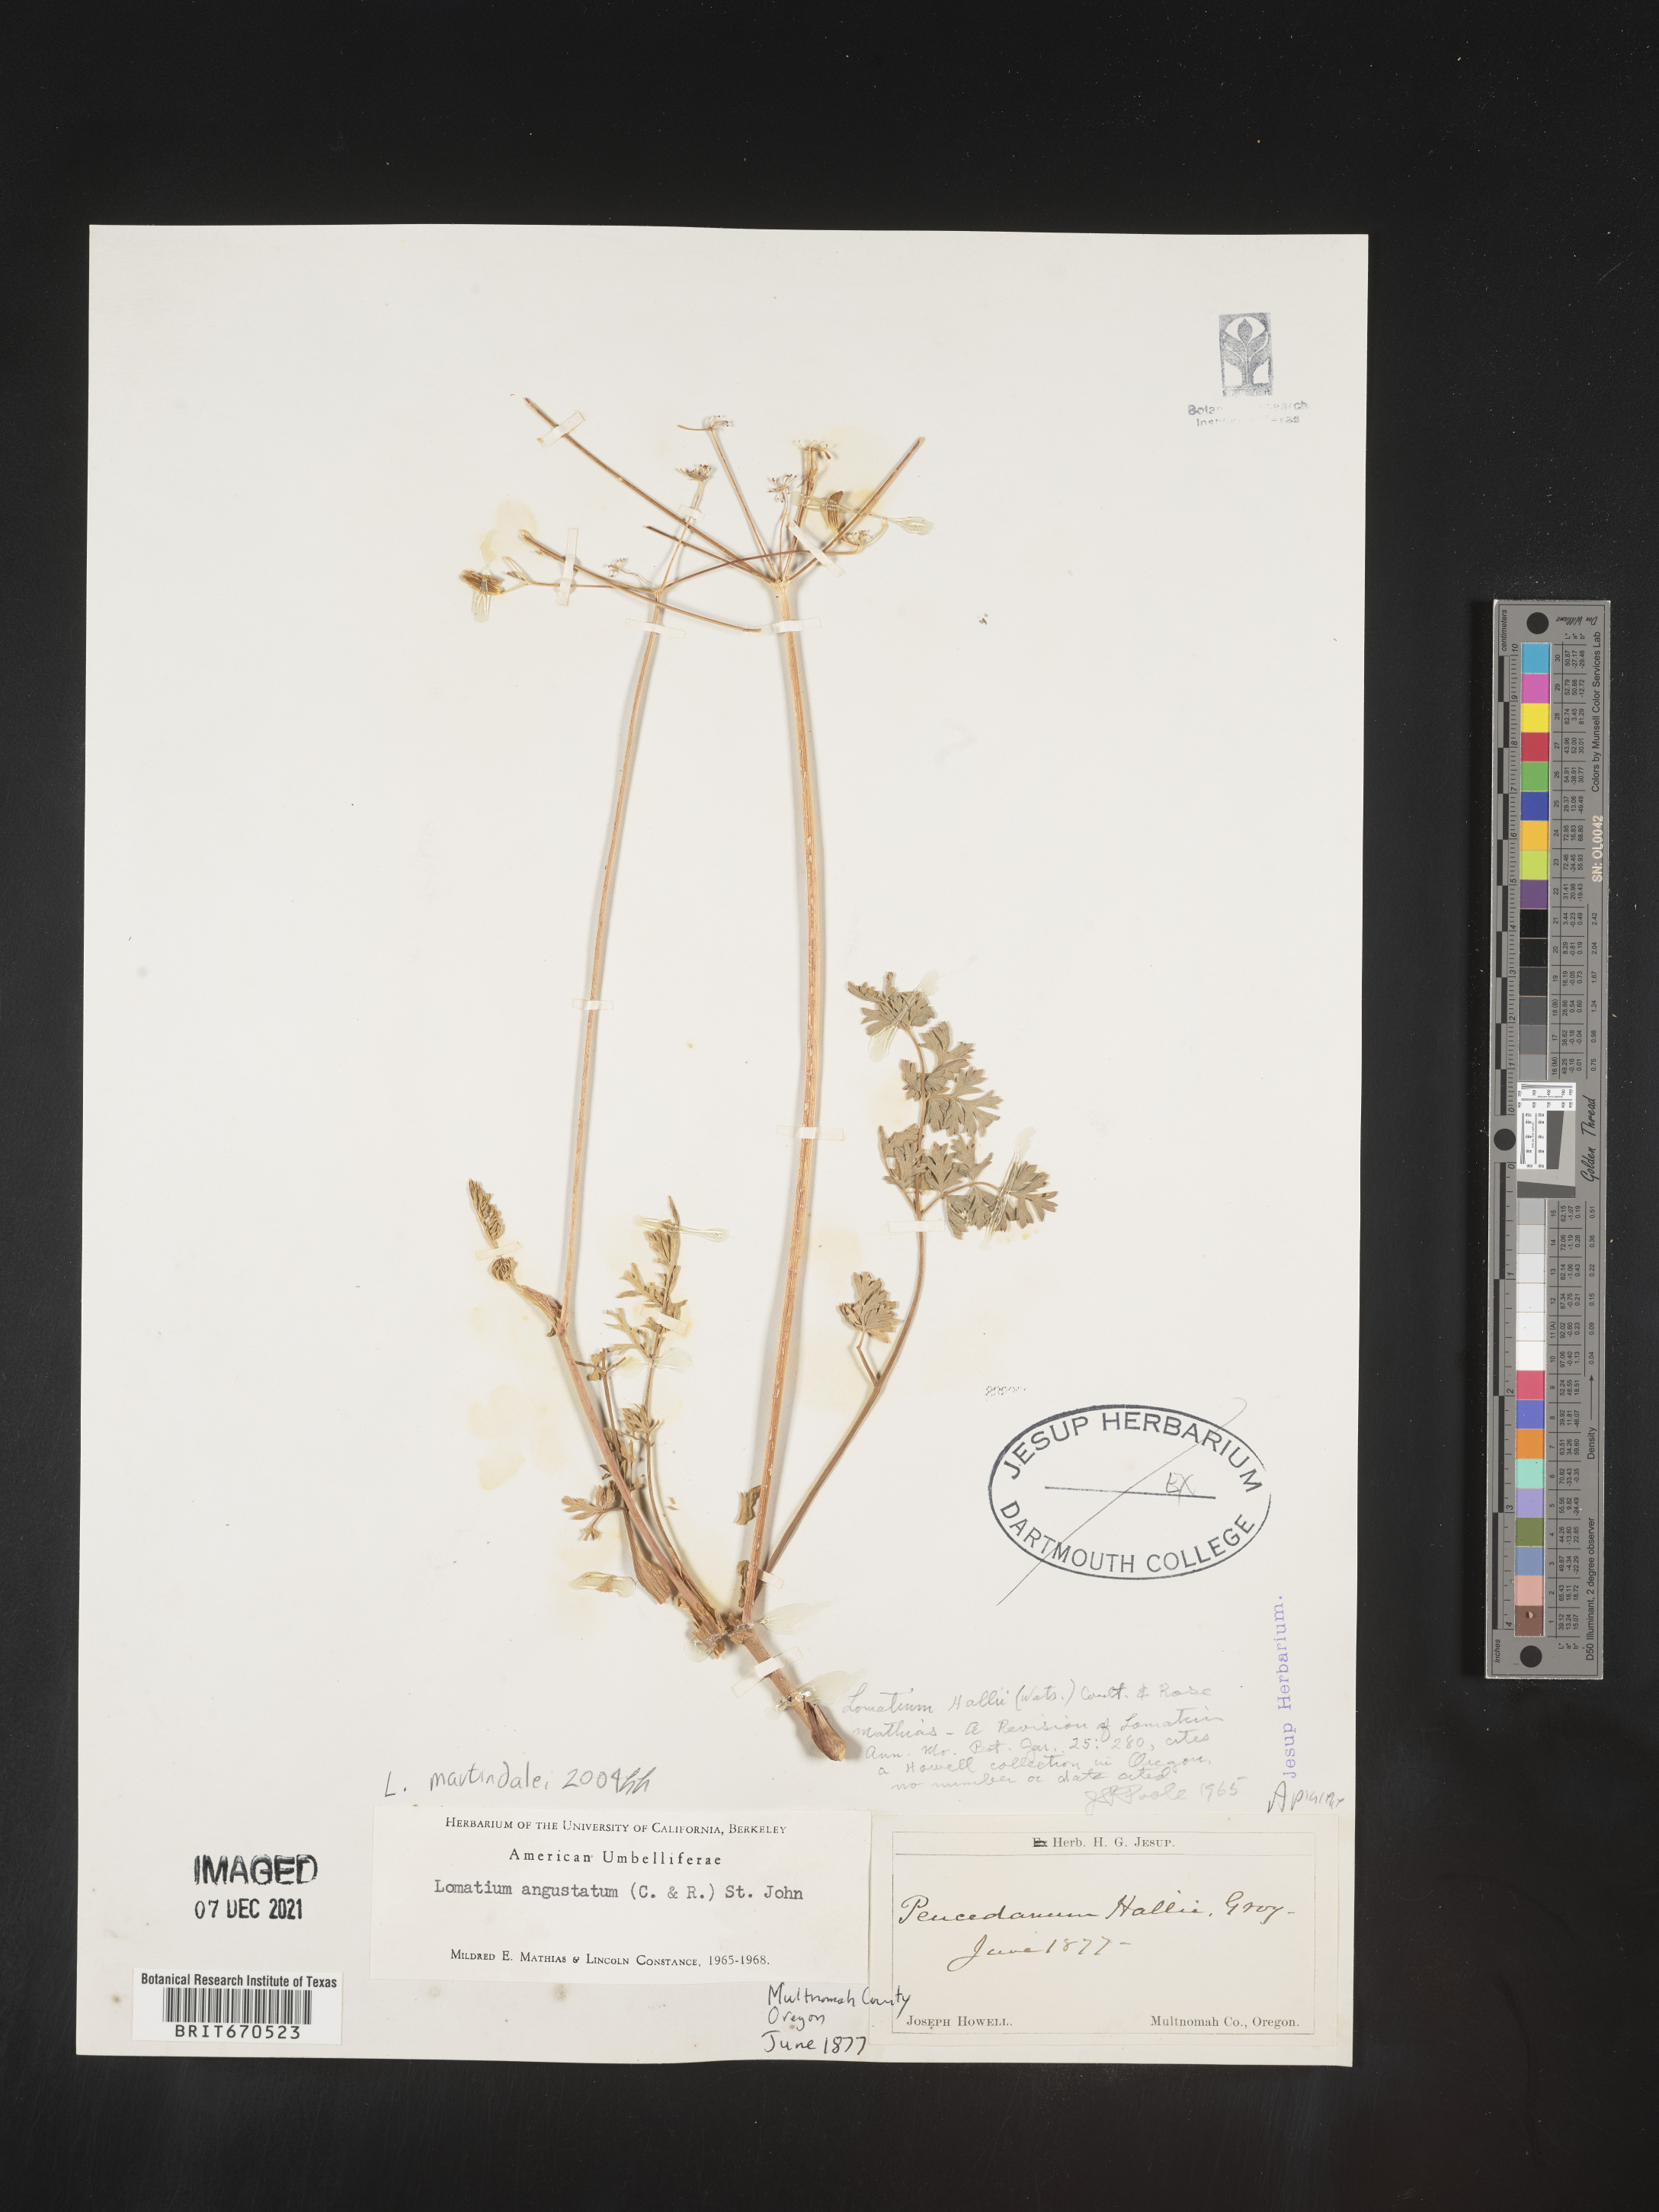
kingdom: Plantae
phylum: Tracheophyta
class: Magnoliopsida
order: Apiales
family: Apiaceae
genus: Lomatium
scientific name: Lomatium martindalei
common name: Cascade desert-parsley
